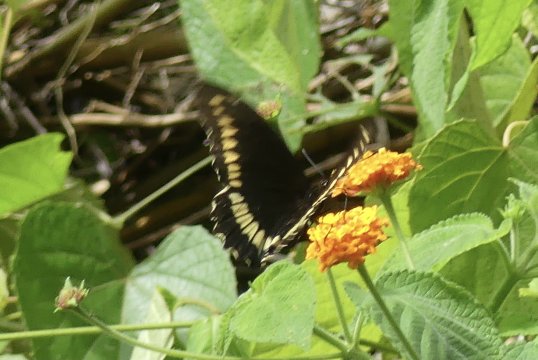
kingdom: Animalia
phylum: Arthropoda
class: Insecta
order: Lepidoptera
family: Papilionidae
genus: Battus
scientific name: Battus polydamas
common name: Polydamas Swallowtail
